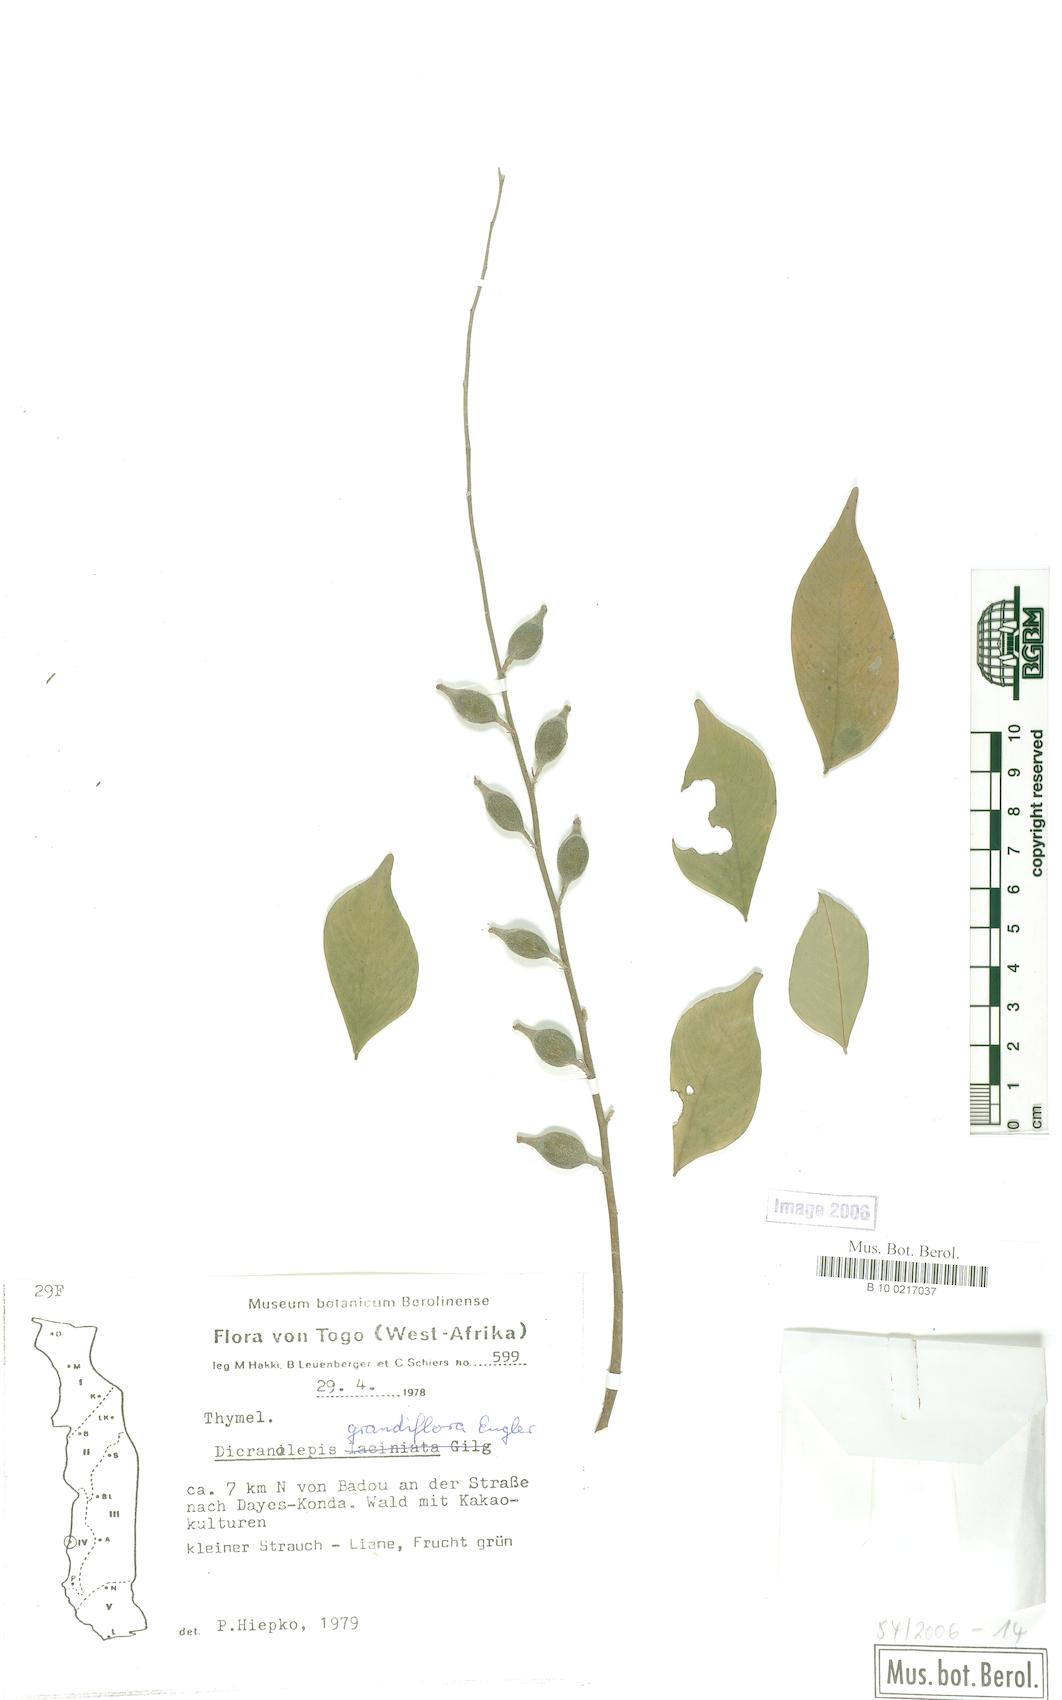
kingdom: Plantae
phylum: Tracheophyta
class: Magnoliopsida
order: Malvales
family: Thymelaeaceae
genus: Dicranolepis
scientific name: Dicranolepis grandiflora
